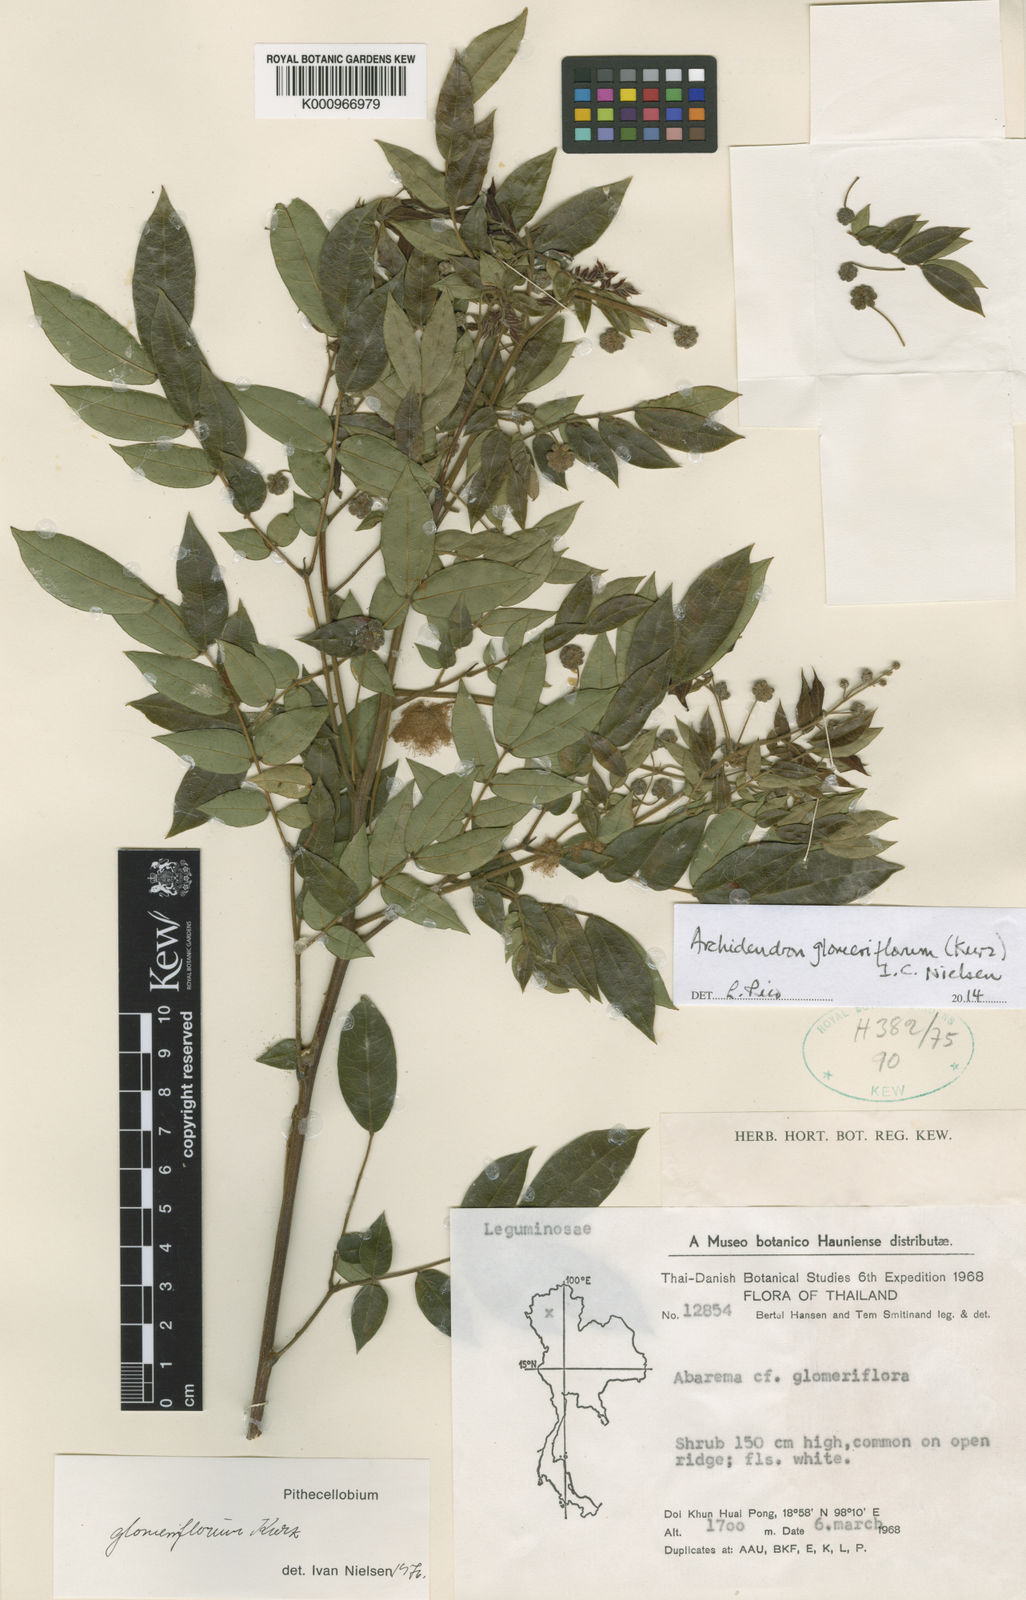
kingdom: Plantae
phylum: Tracheophyta
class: Magnoliopsida
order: Fabales
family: Fabaceae
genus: Archidendron
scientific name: Archidendron glomeriflorum
